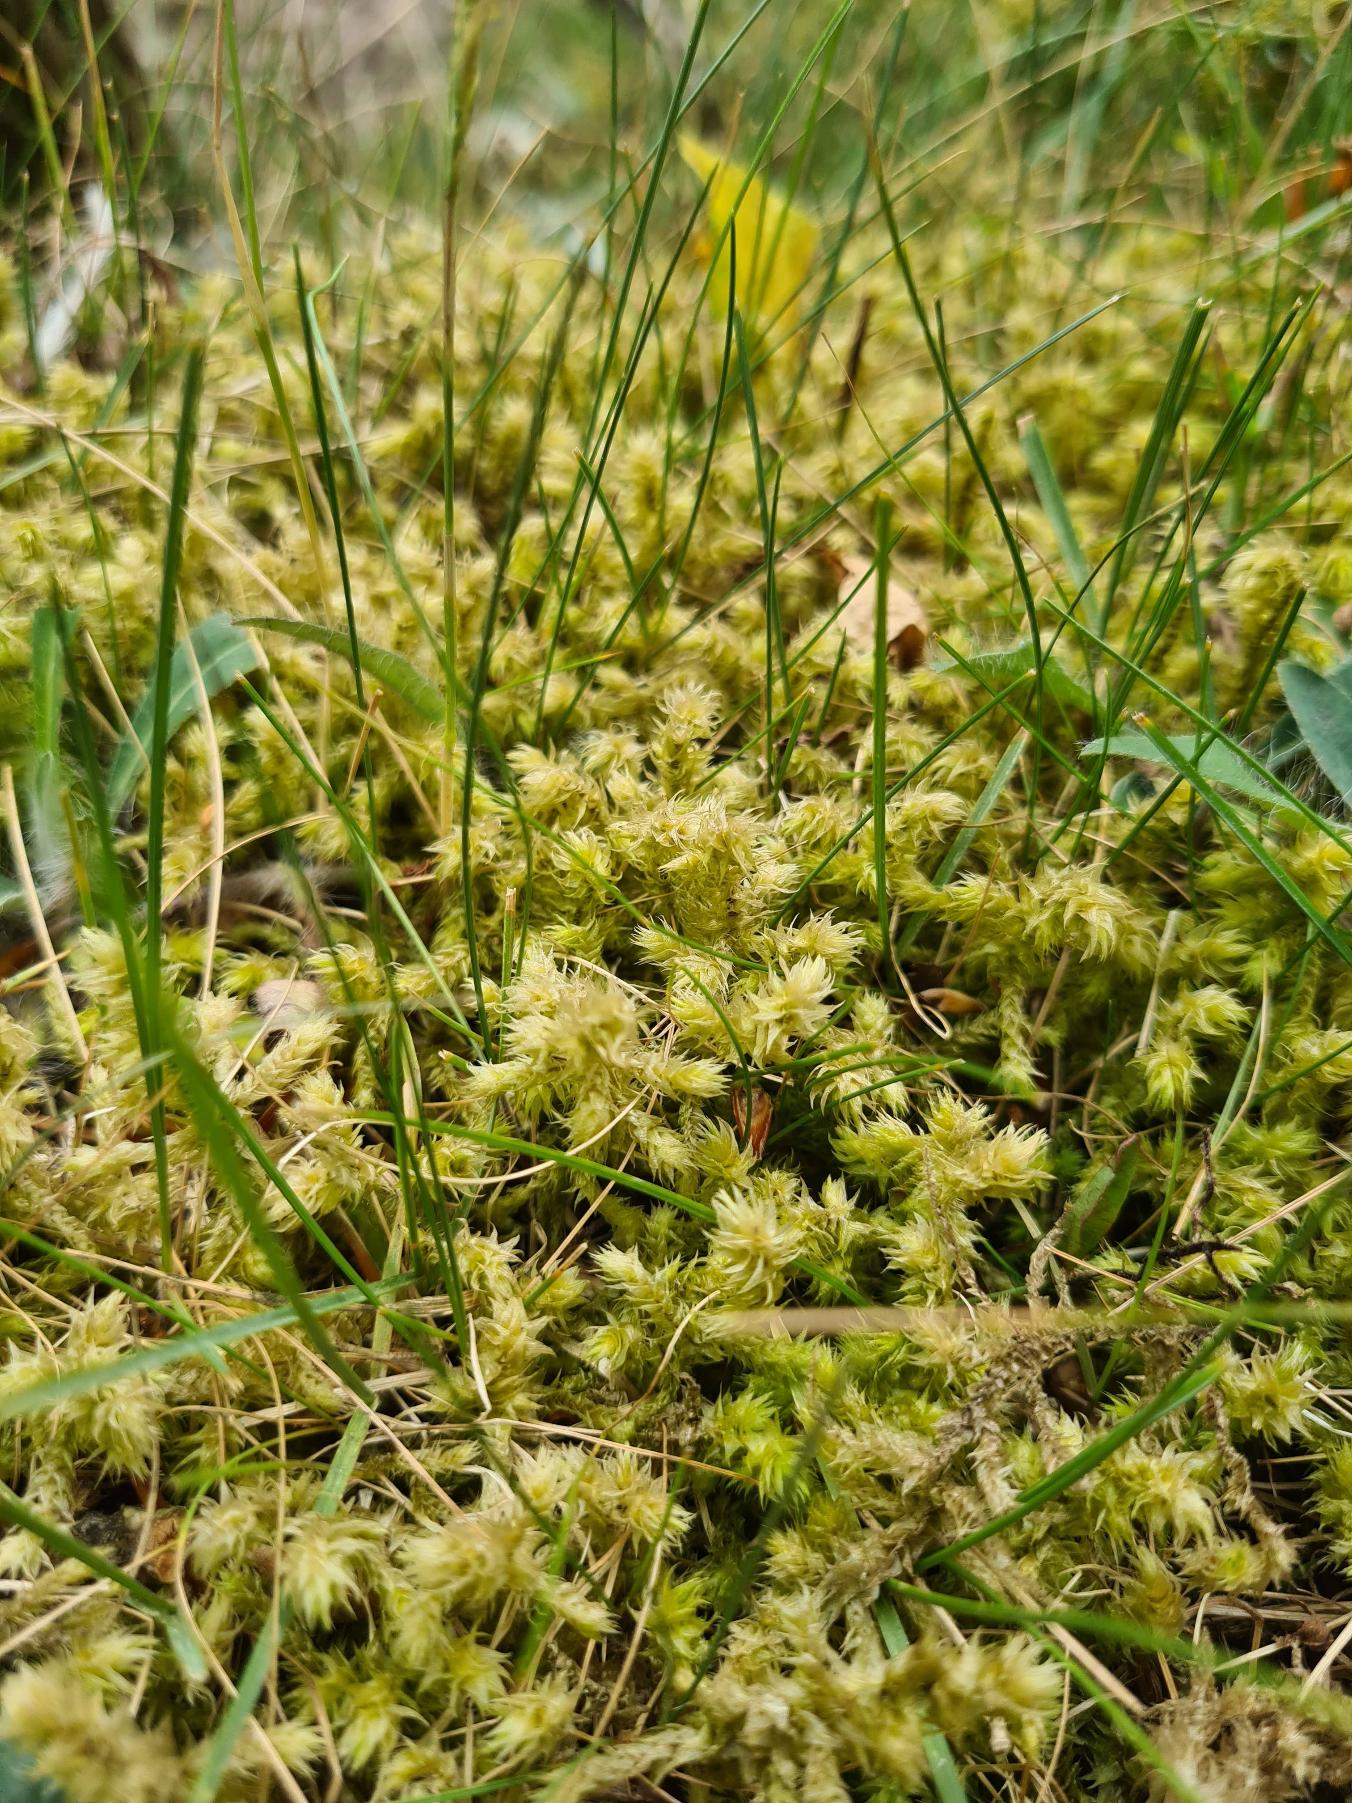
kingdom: Plantae
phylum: Bryophyta
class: Bryopsida
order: Hypnales
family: Hylocomiaceae
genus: Hylocomiadelphus
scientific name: Hylocomiadelphus triquetrus
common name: Stor kransemos
